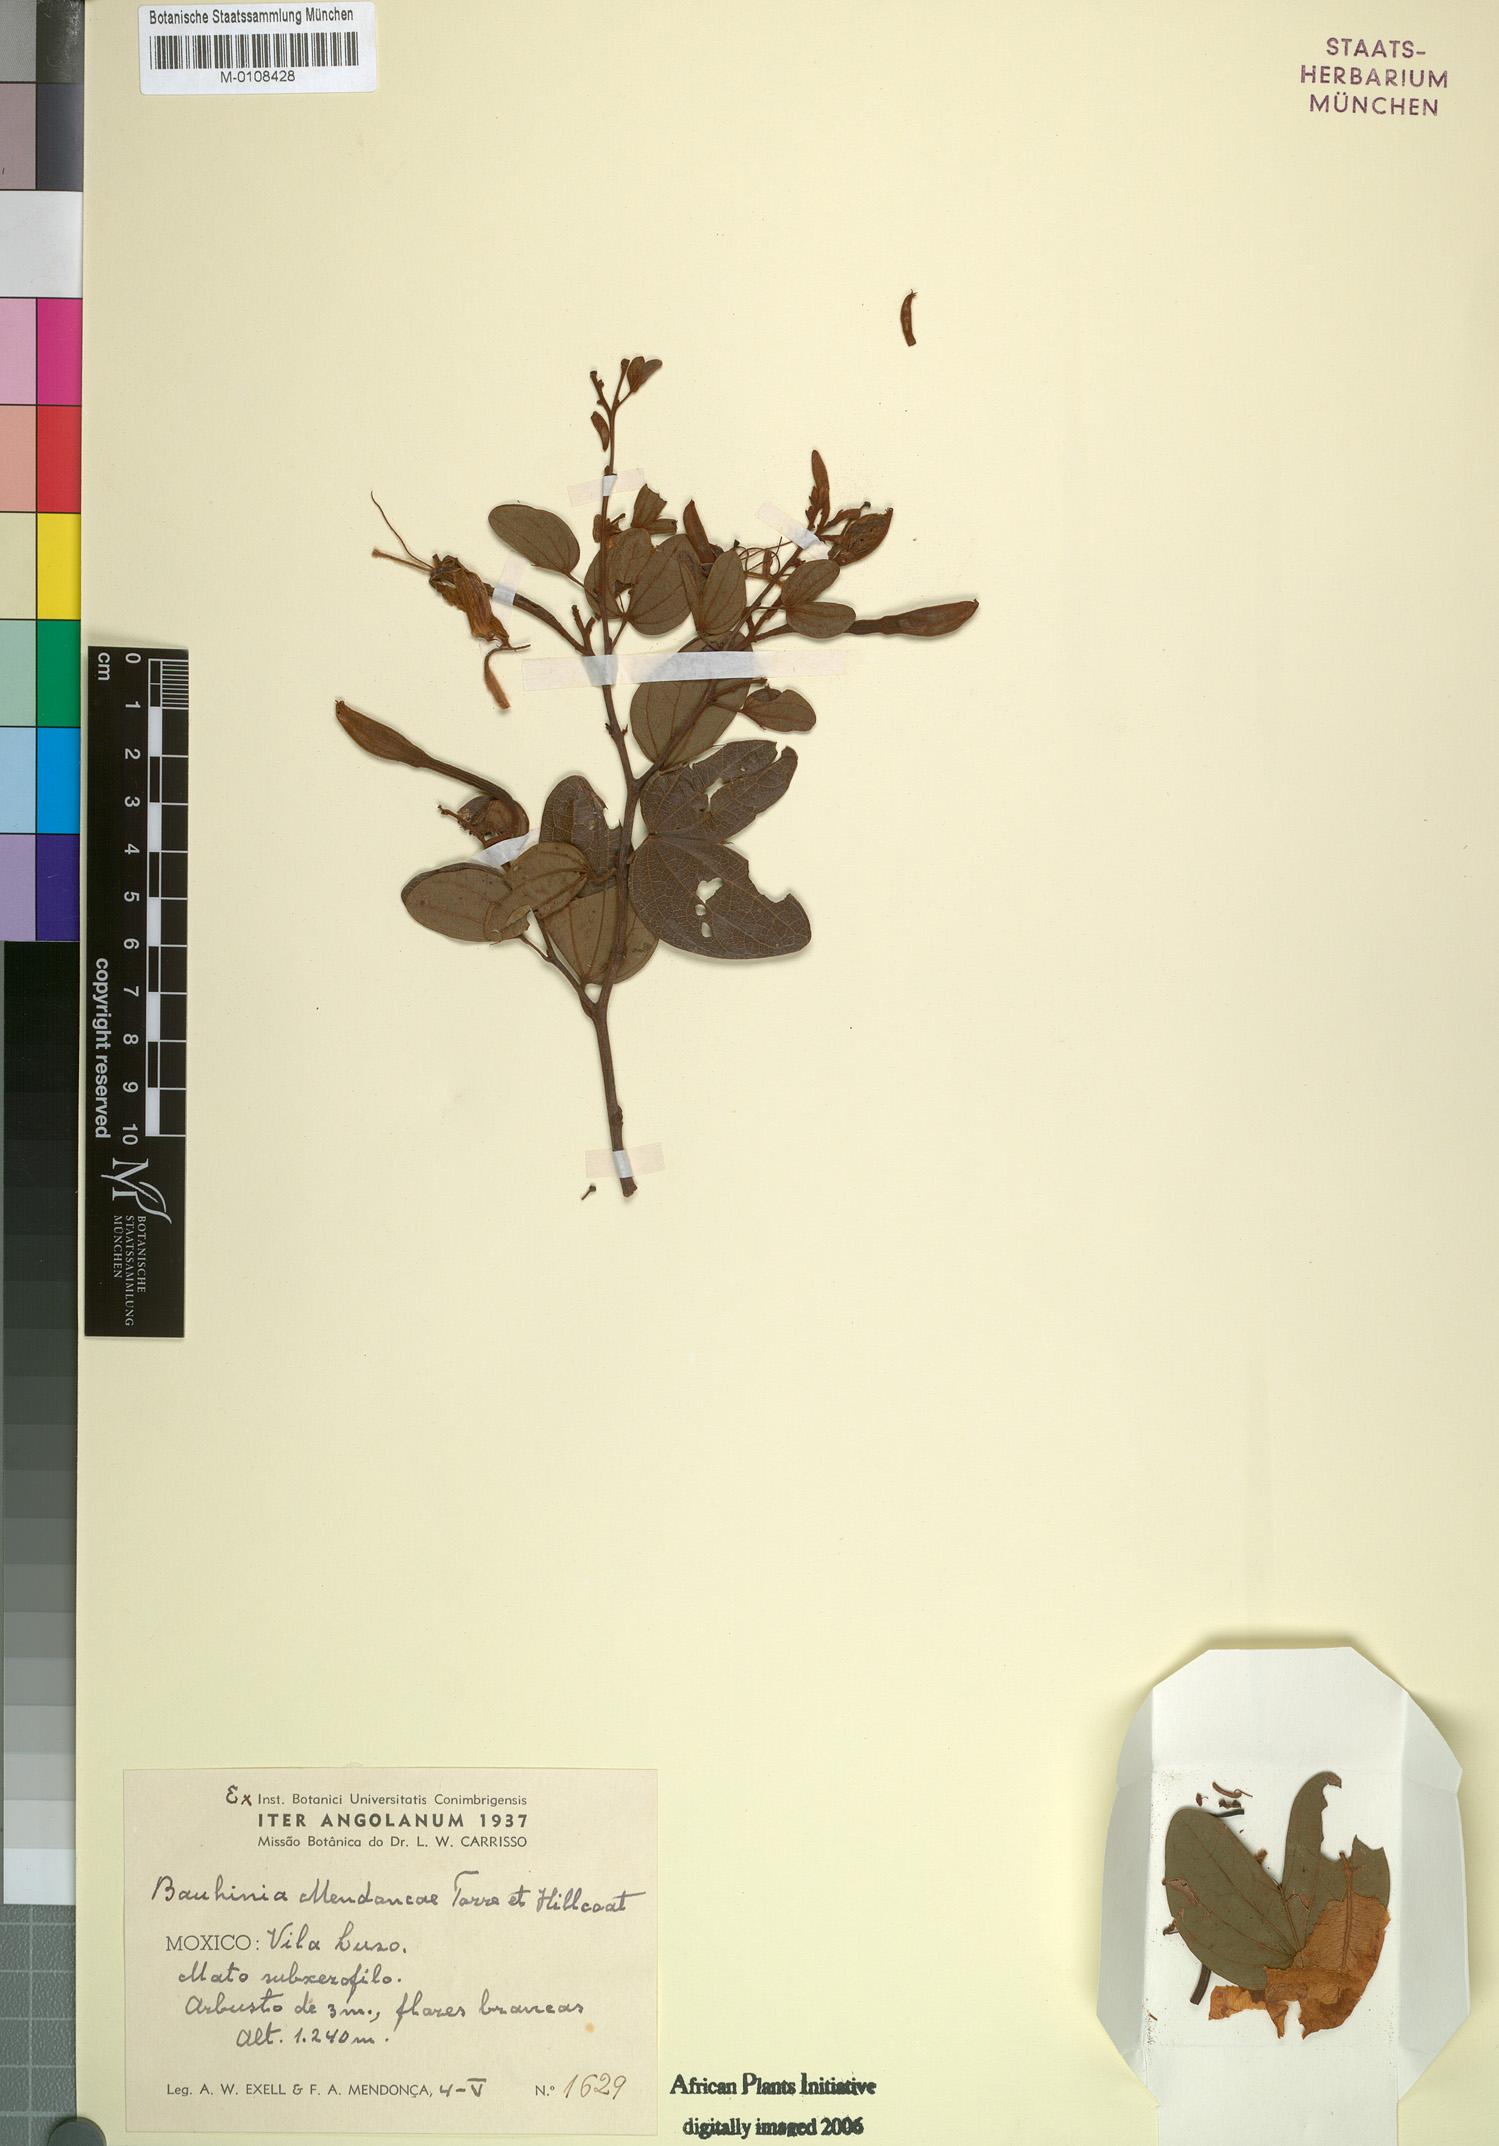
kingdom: Plantae
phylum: Tracheophyta
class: Magnoliopsida
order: Fabales
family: Fabaceae
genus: Bauhinia
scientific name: Bauhinia mendoncae
